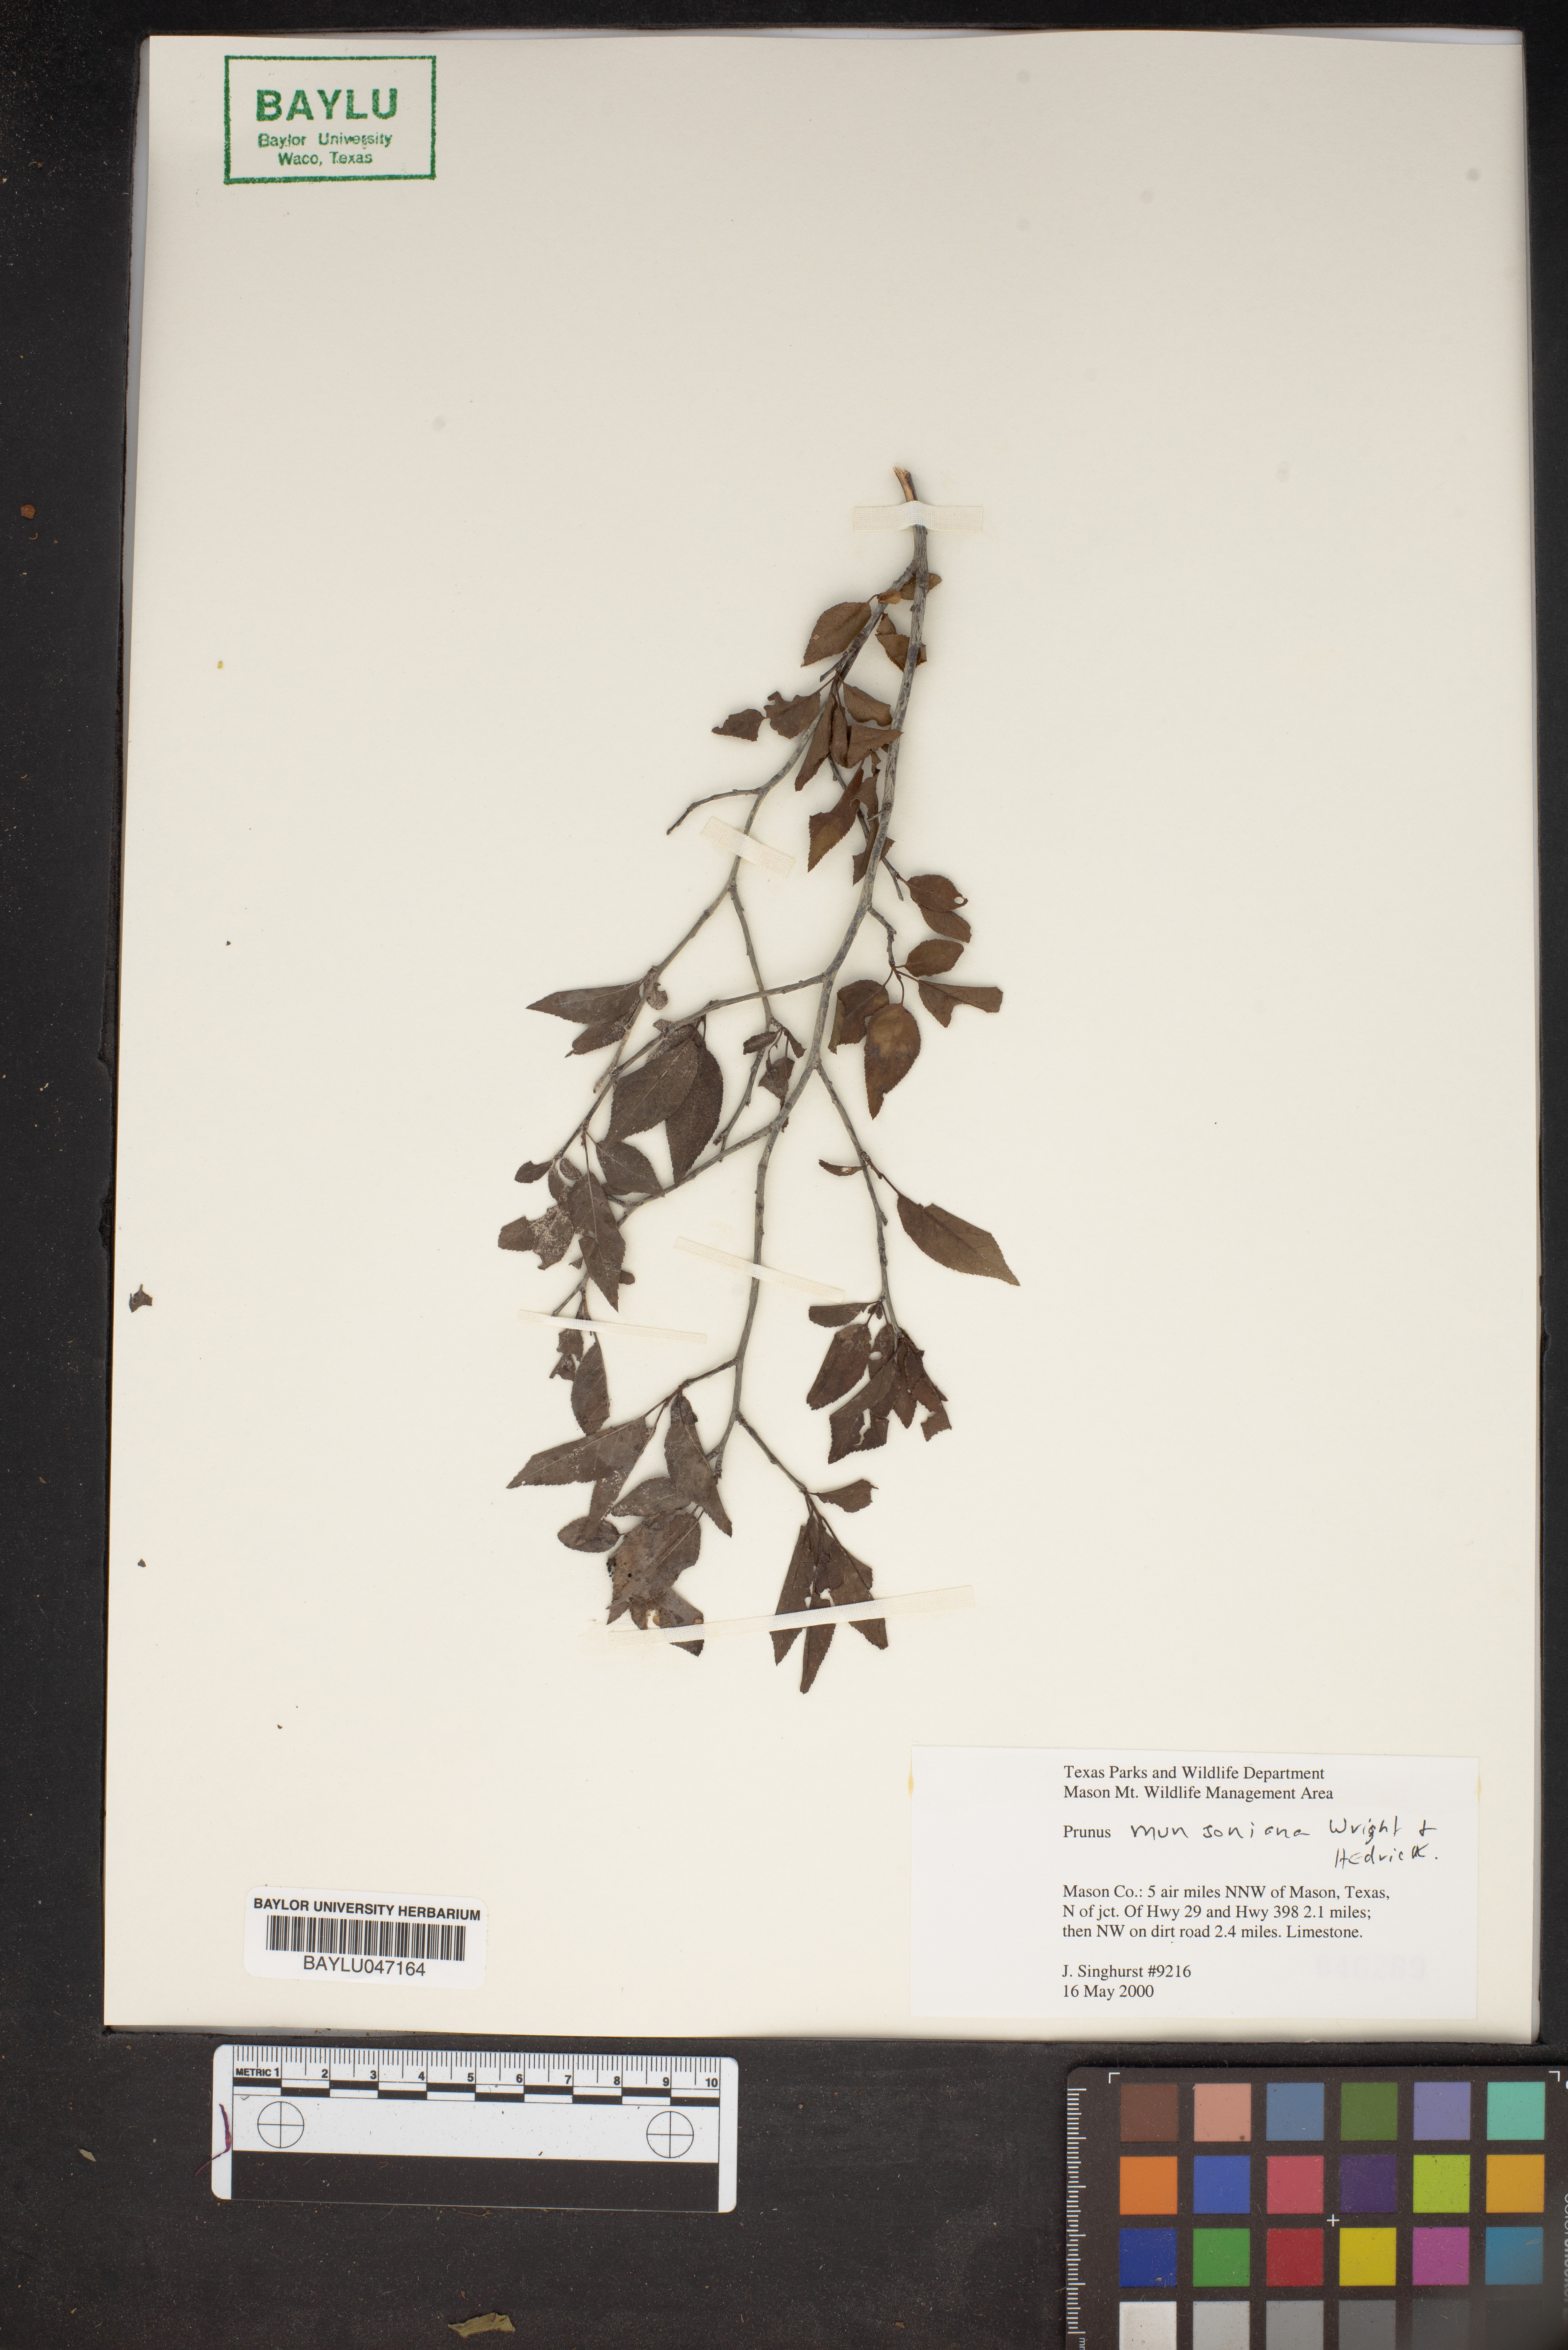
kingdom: Plantae
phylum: Tracheophyta
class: Magnoliopsida
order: Rosales
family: Rosaceae
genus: Prunus
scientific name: Prunus munsoniana
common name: Creek plum
